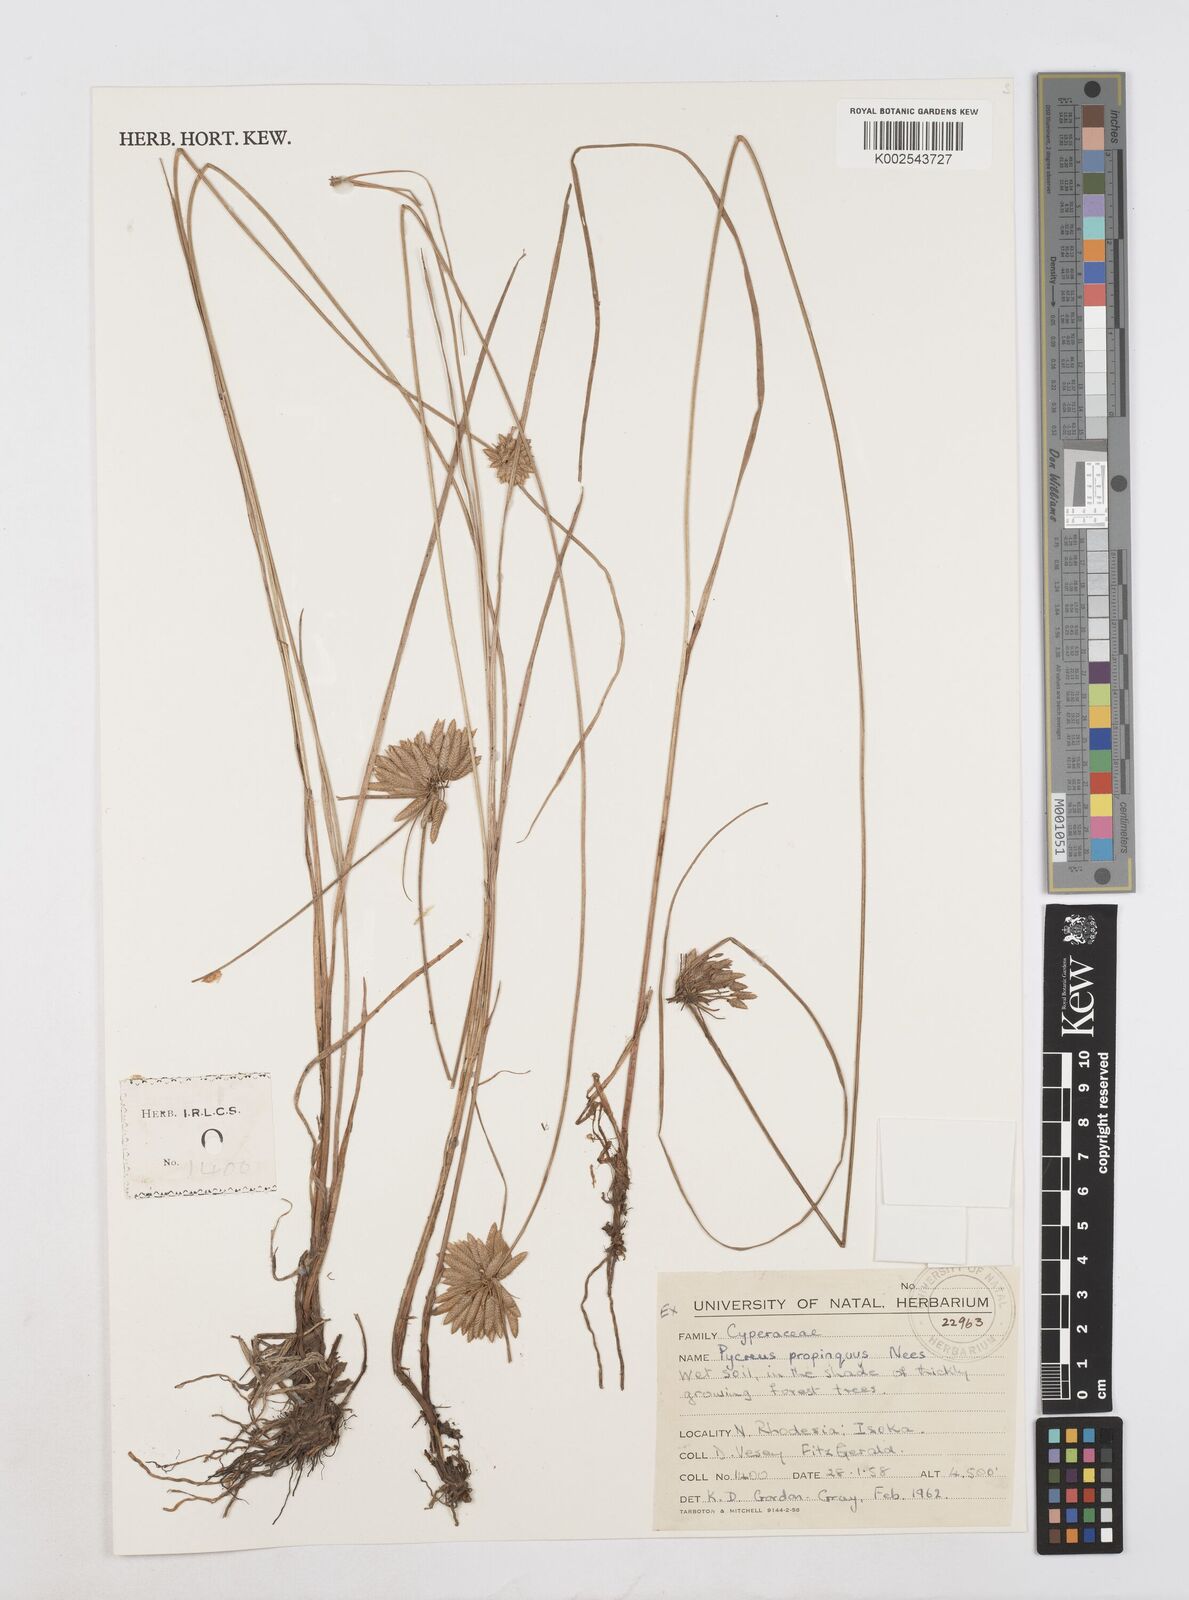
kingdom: Plantae
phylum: Tracheophyta
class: Liliopsida
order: Poales
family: Cyperaceae
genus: Cyperus
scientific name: Cyperus
